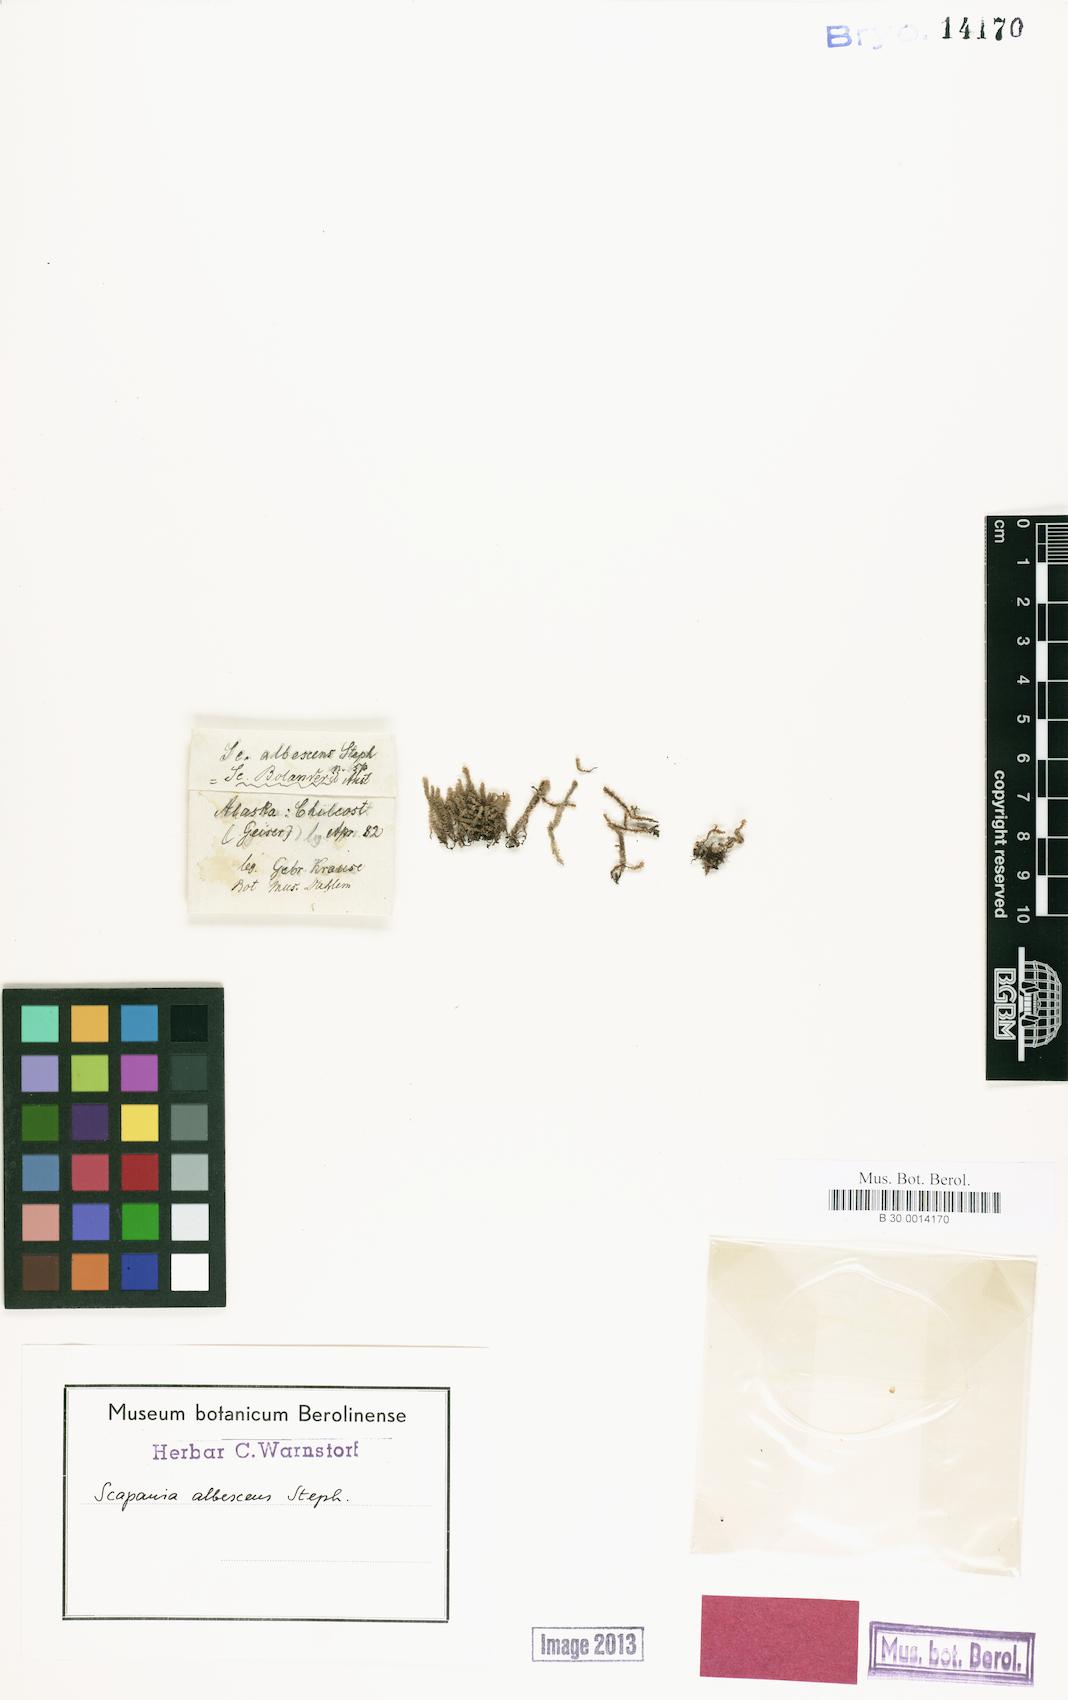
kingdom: Plantae
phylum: Marchantiophyta
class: Jungermanniopsida
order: Jungermanniales
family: Scapaniaceae
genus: Scapania
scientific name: Scapania bolanderi
